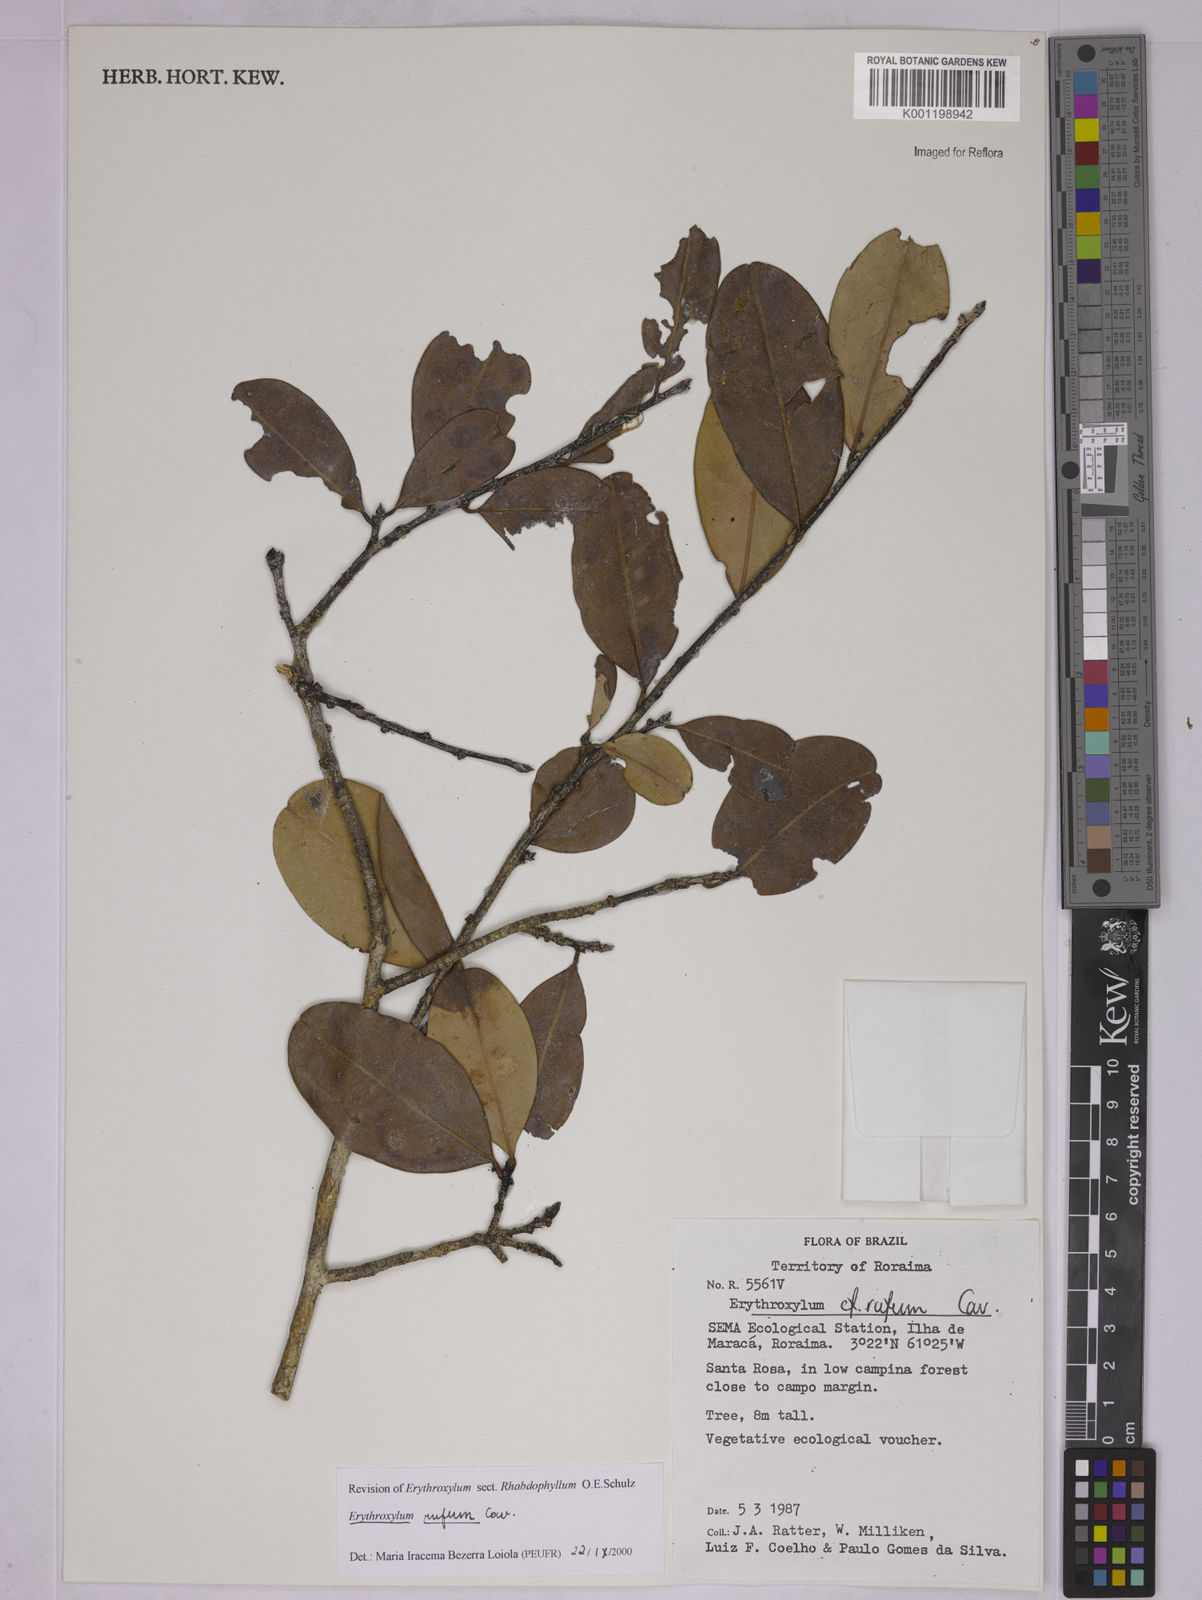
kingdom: Plantae
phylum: Tracheophyta
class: Magnoliopsida
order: Malpighiales
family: Erythroxylaceae
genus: Erythroxylum
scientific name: Erythroxylum rufum
